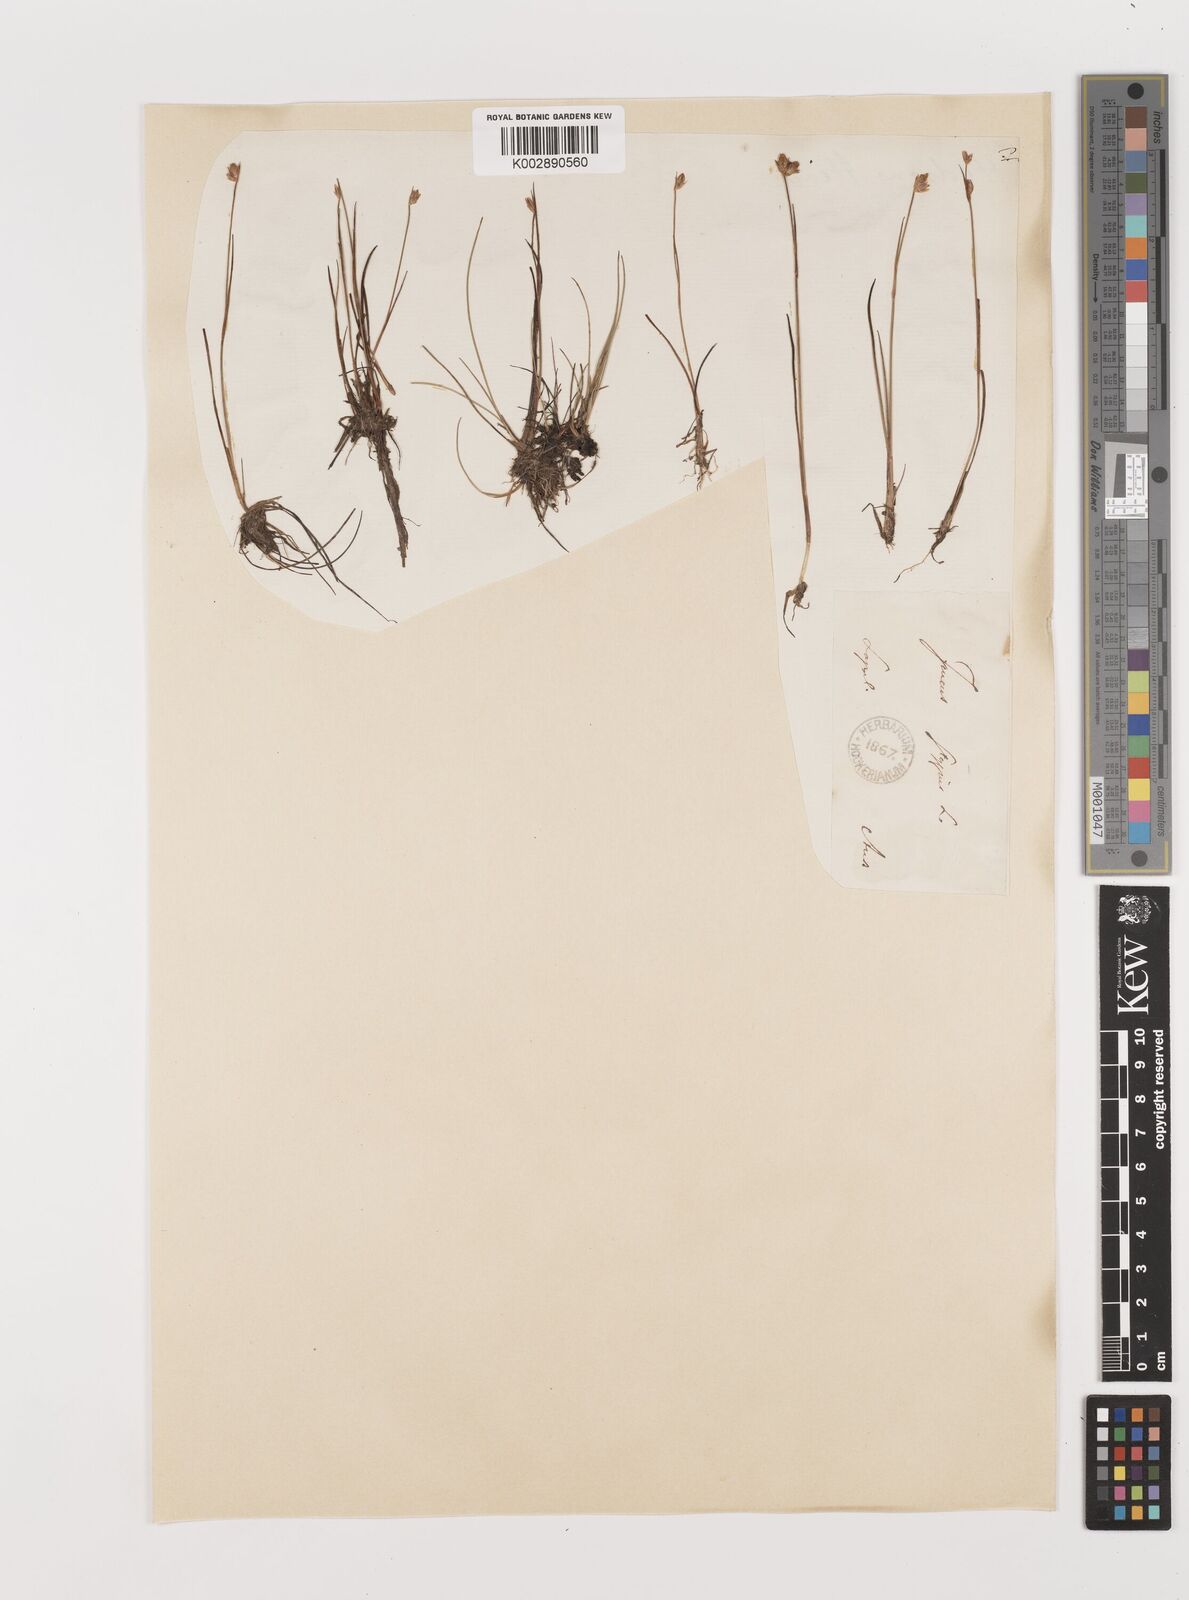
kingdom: Plantae
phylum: Tracheophyta
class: Liliopsida
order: Poales
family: Juncaceae
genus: Juncus
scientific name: Juncus stygius
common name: Bog rush
